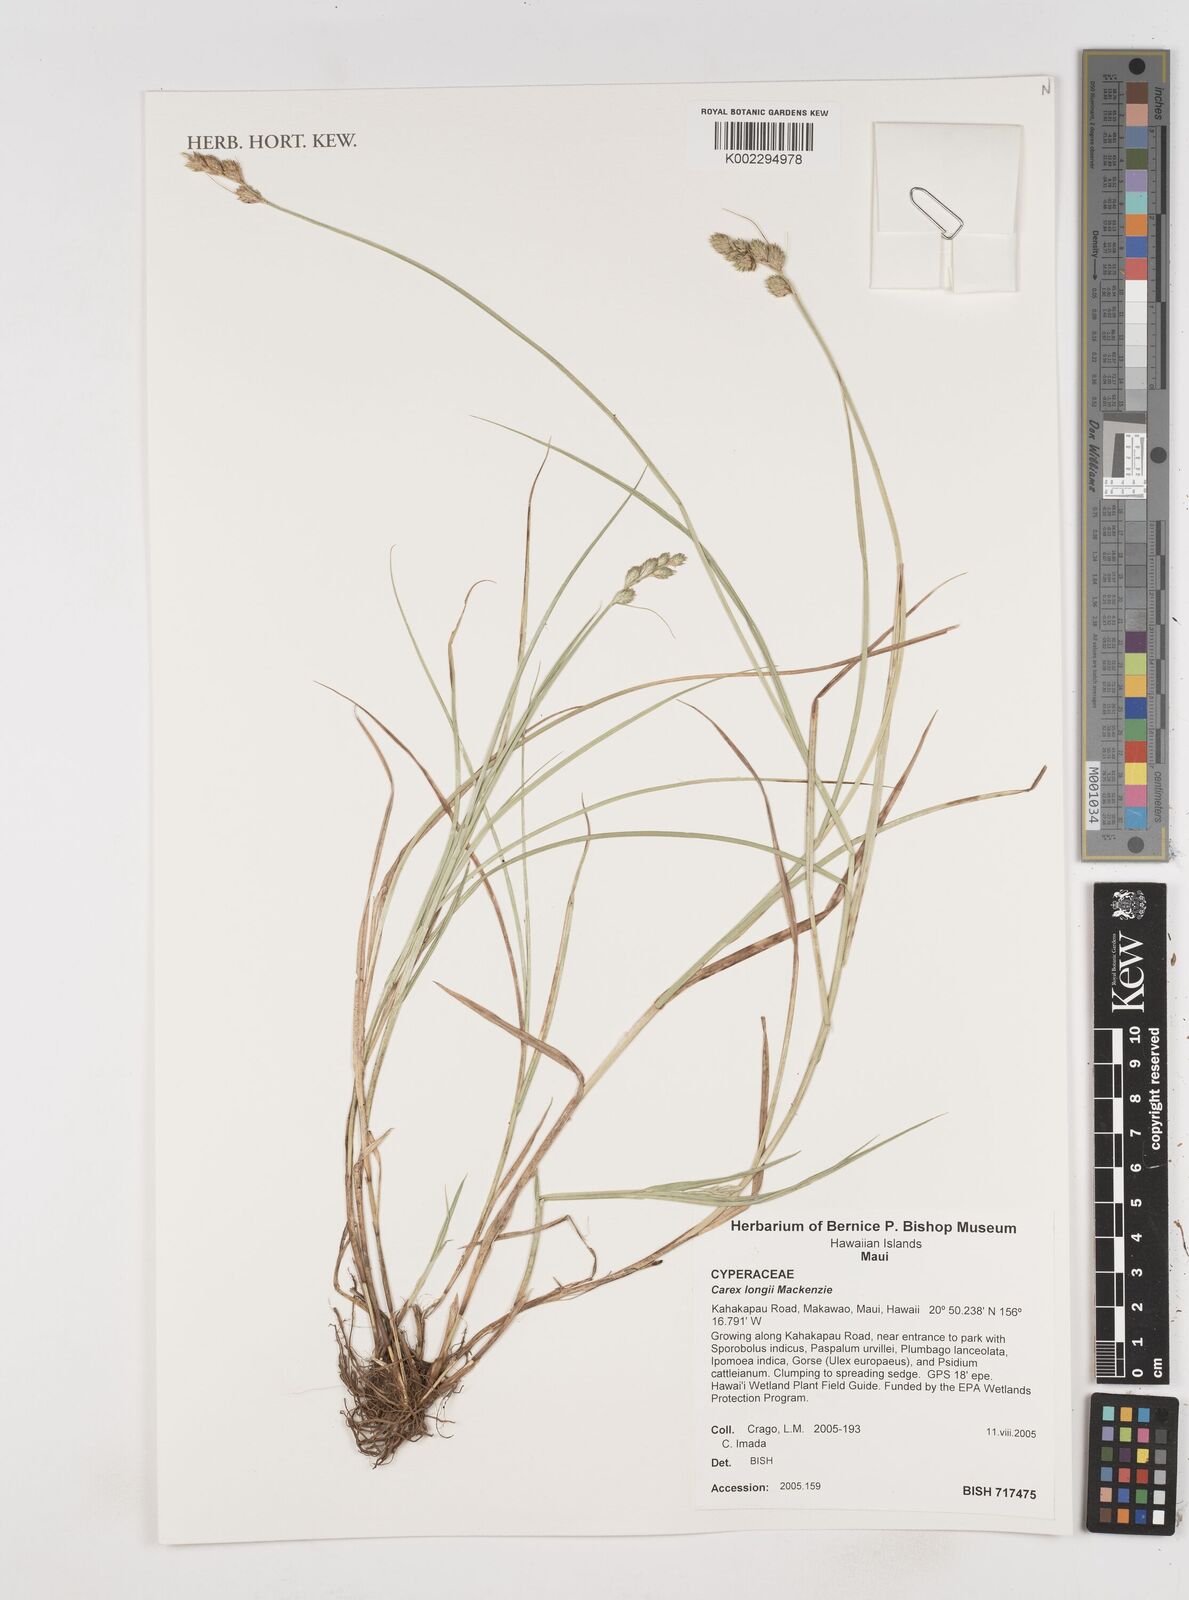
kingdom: Plantae
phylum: Tracheophyta
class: Liliopsida
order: Poales
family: Cyperaceae
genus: Cyperus
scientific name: Cyperus
